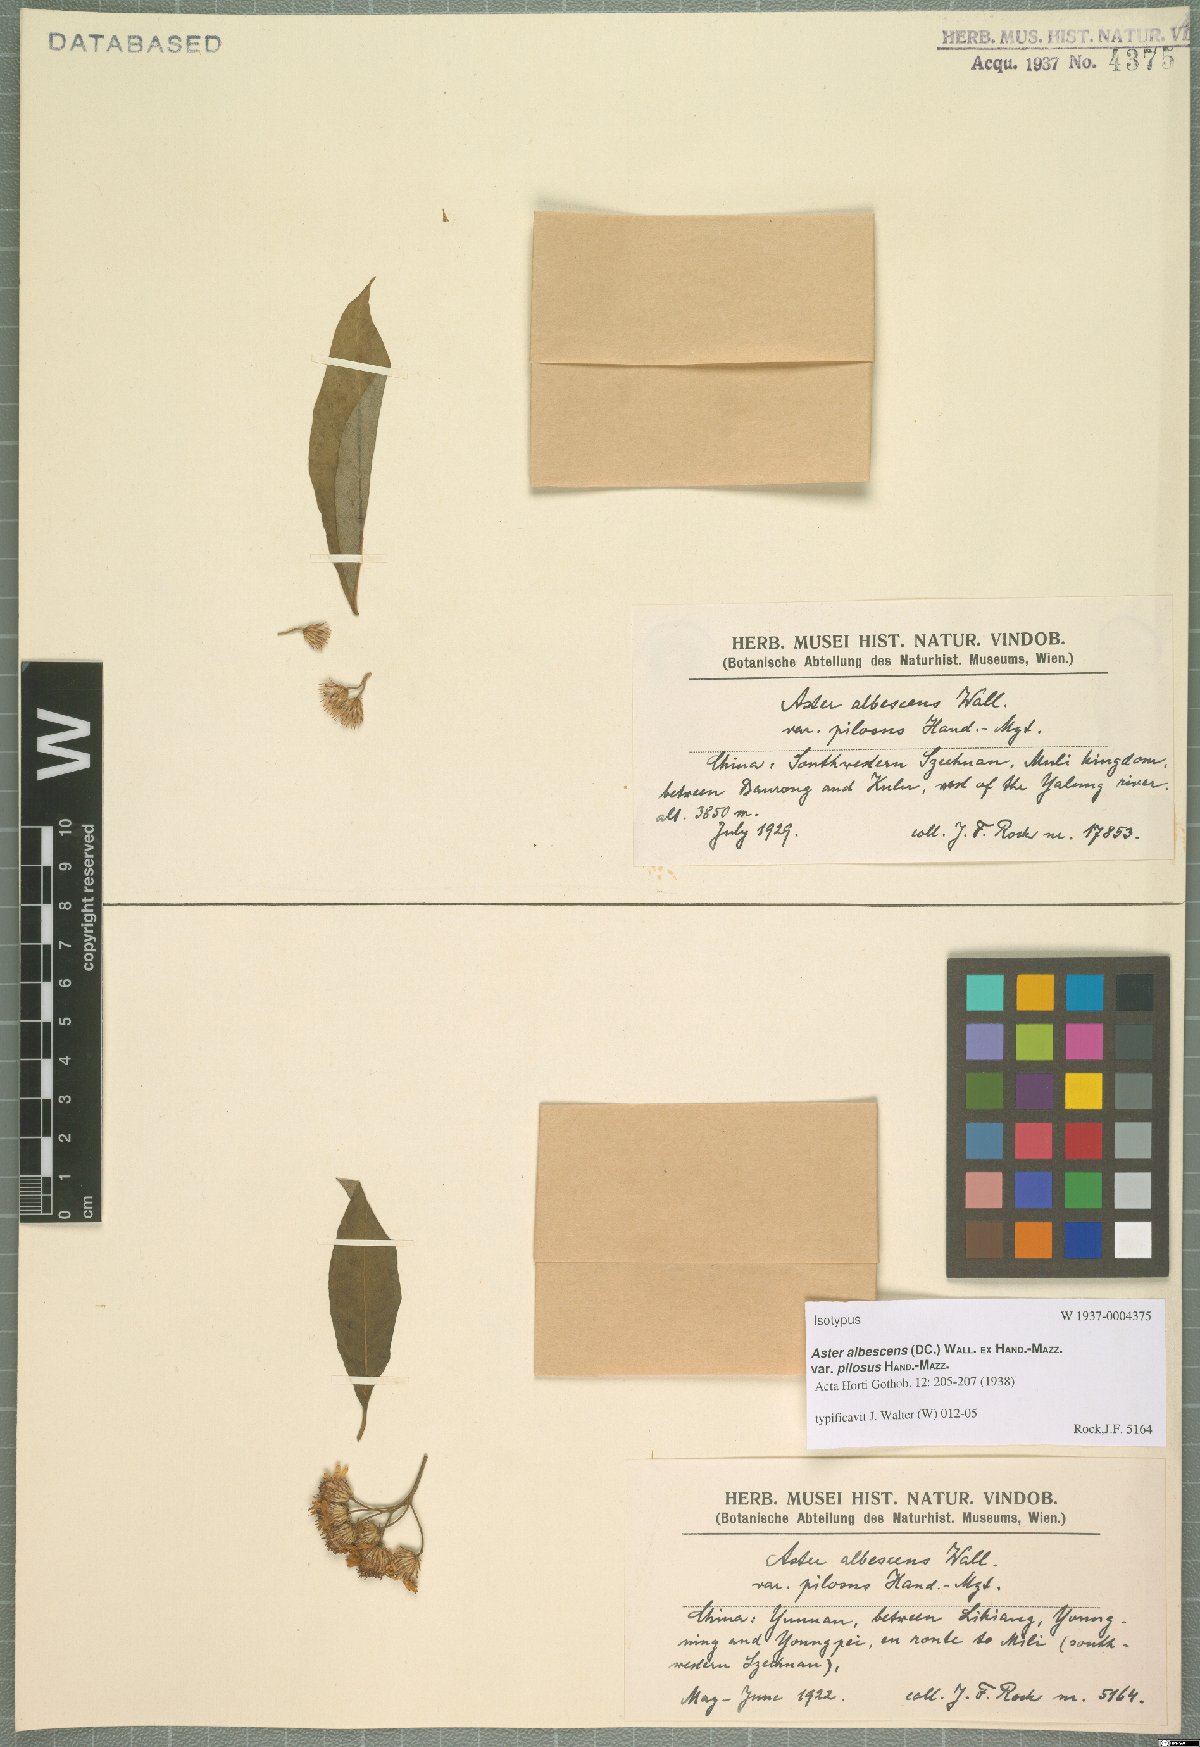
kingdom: Plantae
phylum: Tracheophyta
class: Magnoliopsida
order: Asterales
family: Asteraceae
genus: Sinosidus
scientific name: Sinosidus albescens
